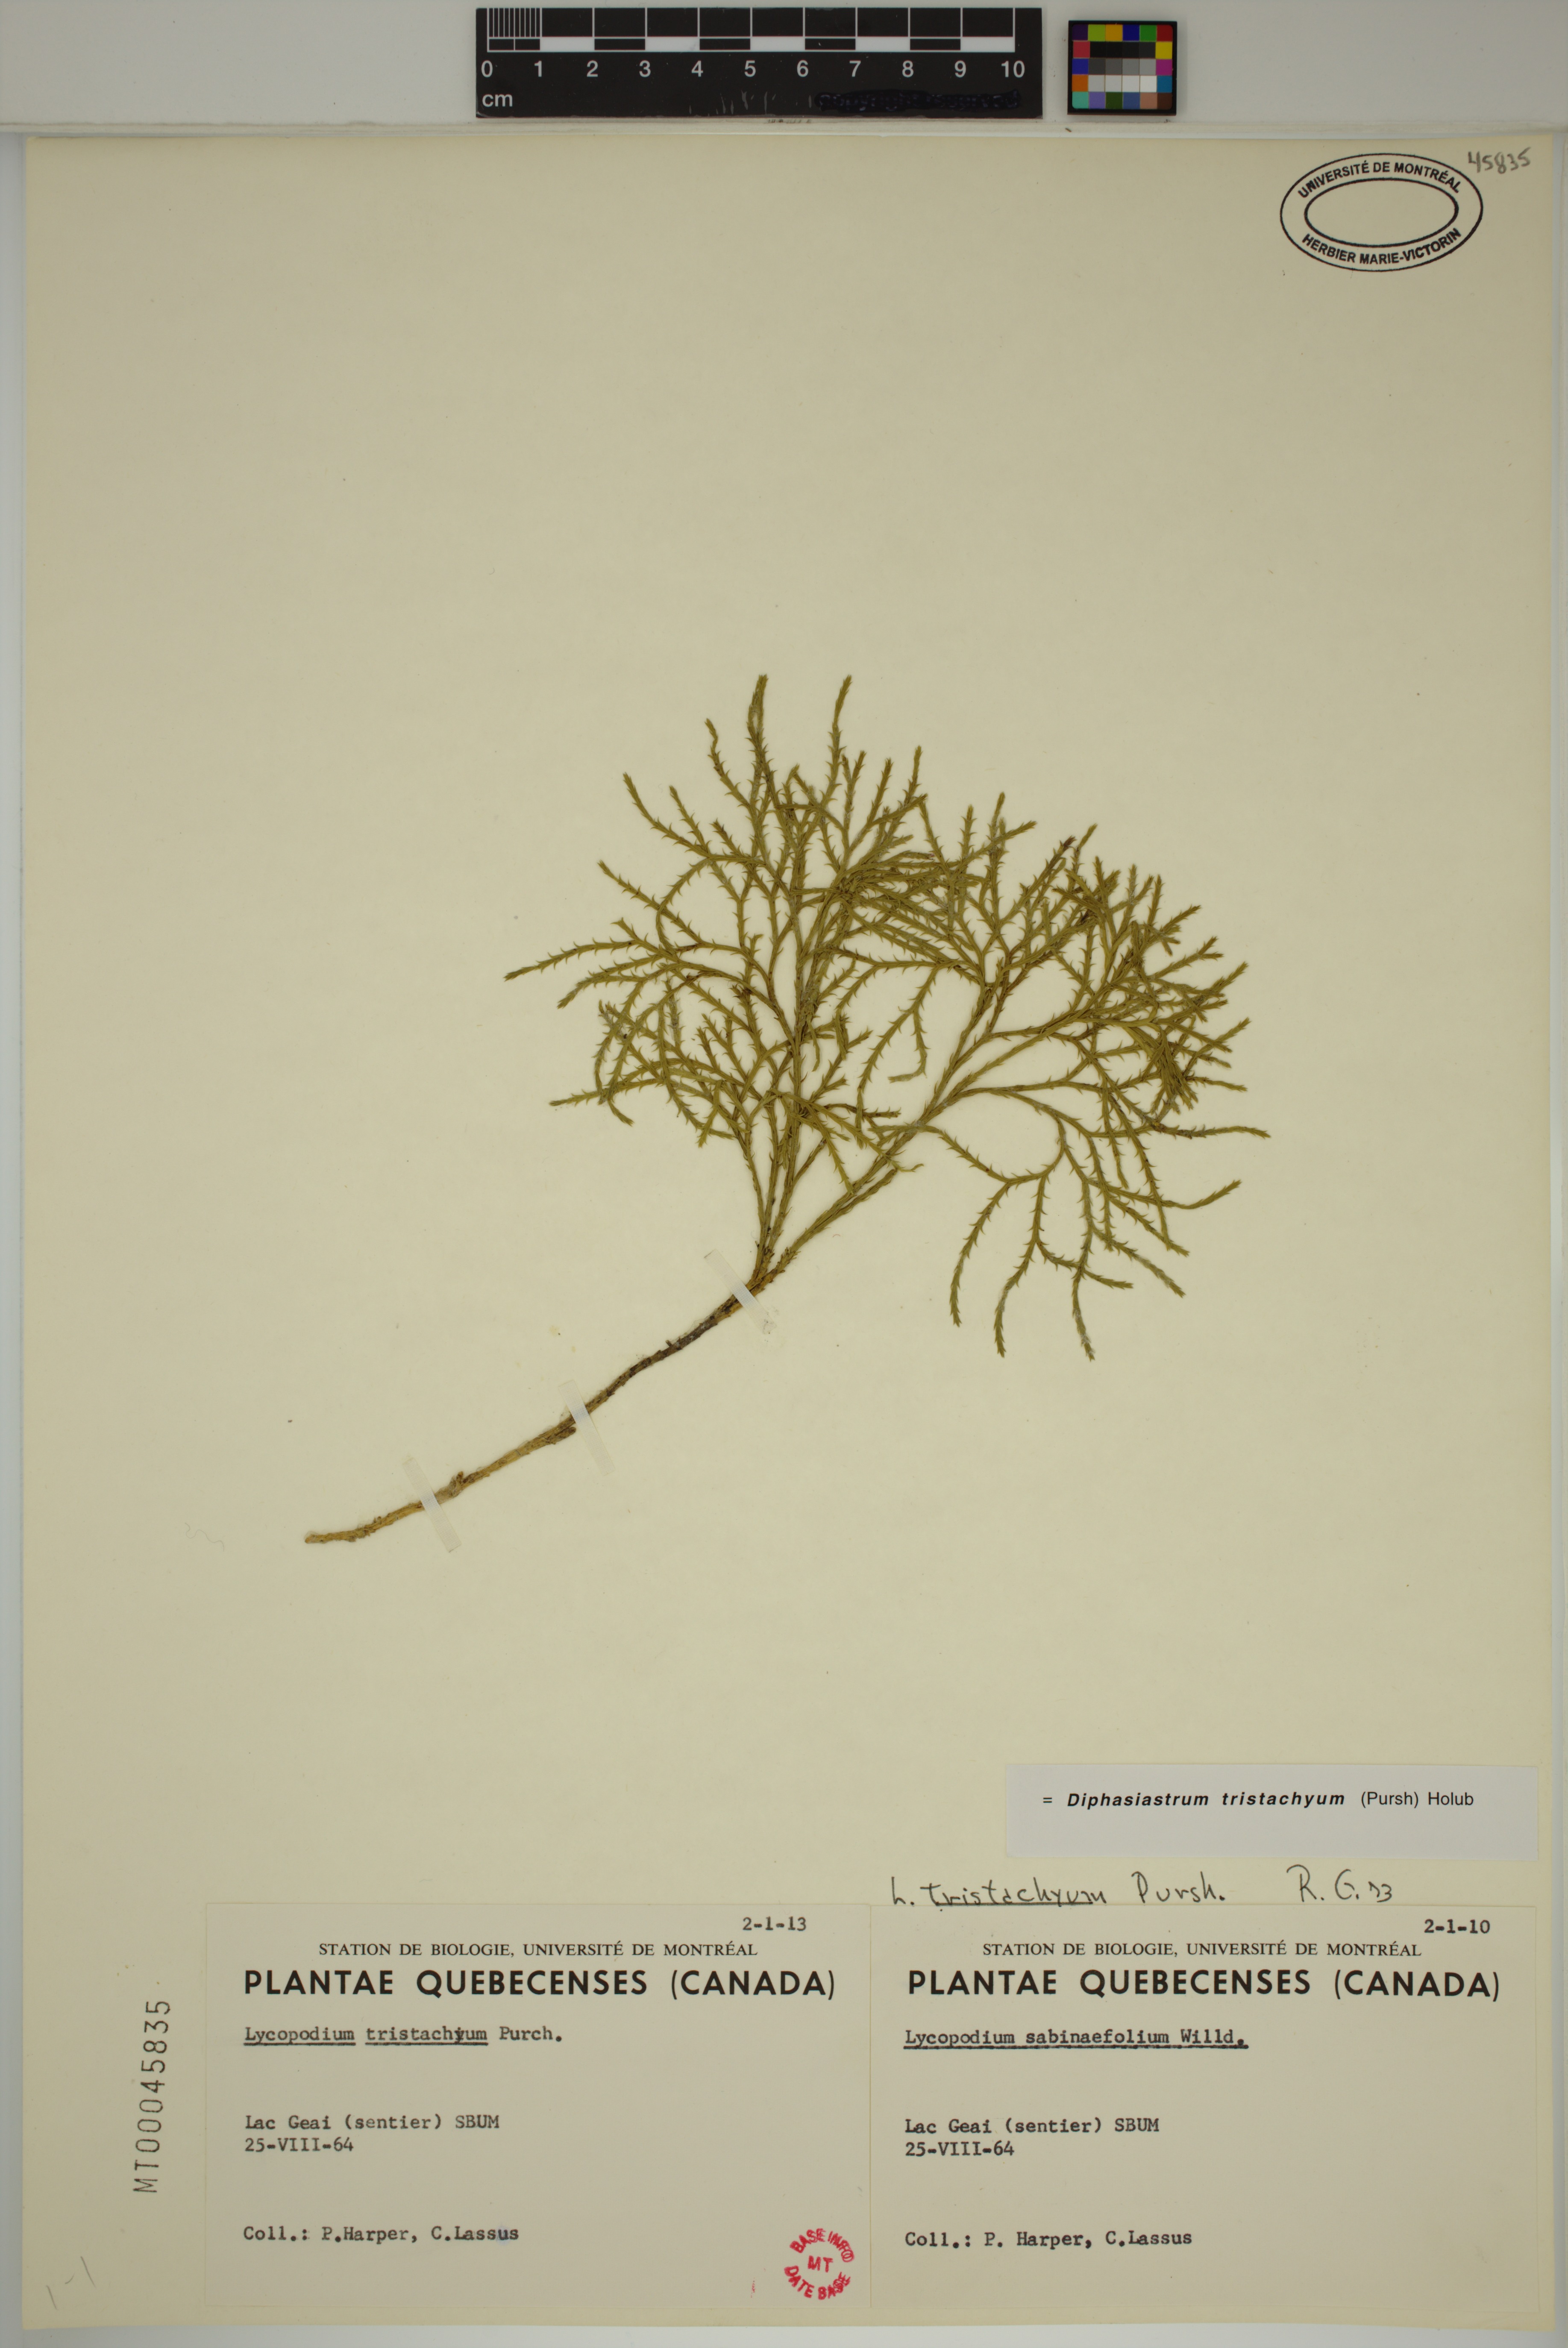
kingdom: Plantae
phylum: Tracheophyta
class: Lycopodiopsida
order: Lycopodiales
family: Lycopodiaceae
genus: Diphasiastrum
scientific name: Diphasiastrum tristachyum
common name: Blue ground-cedar
